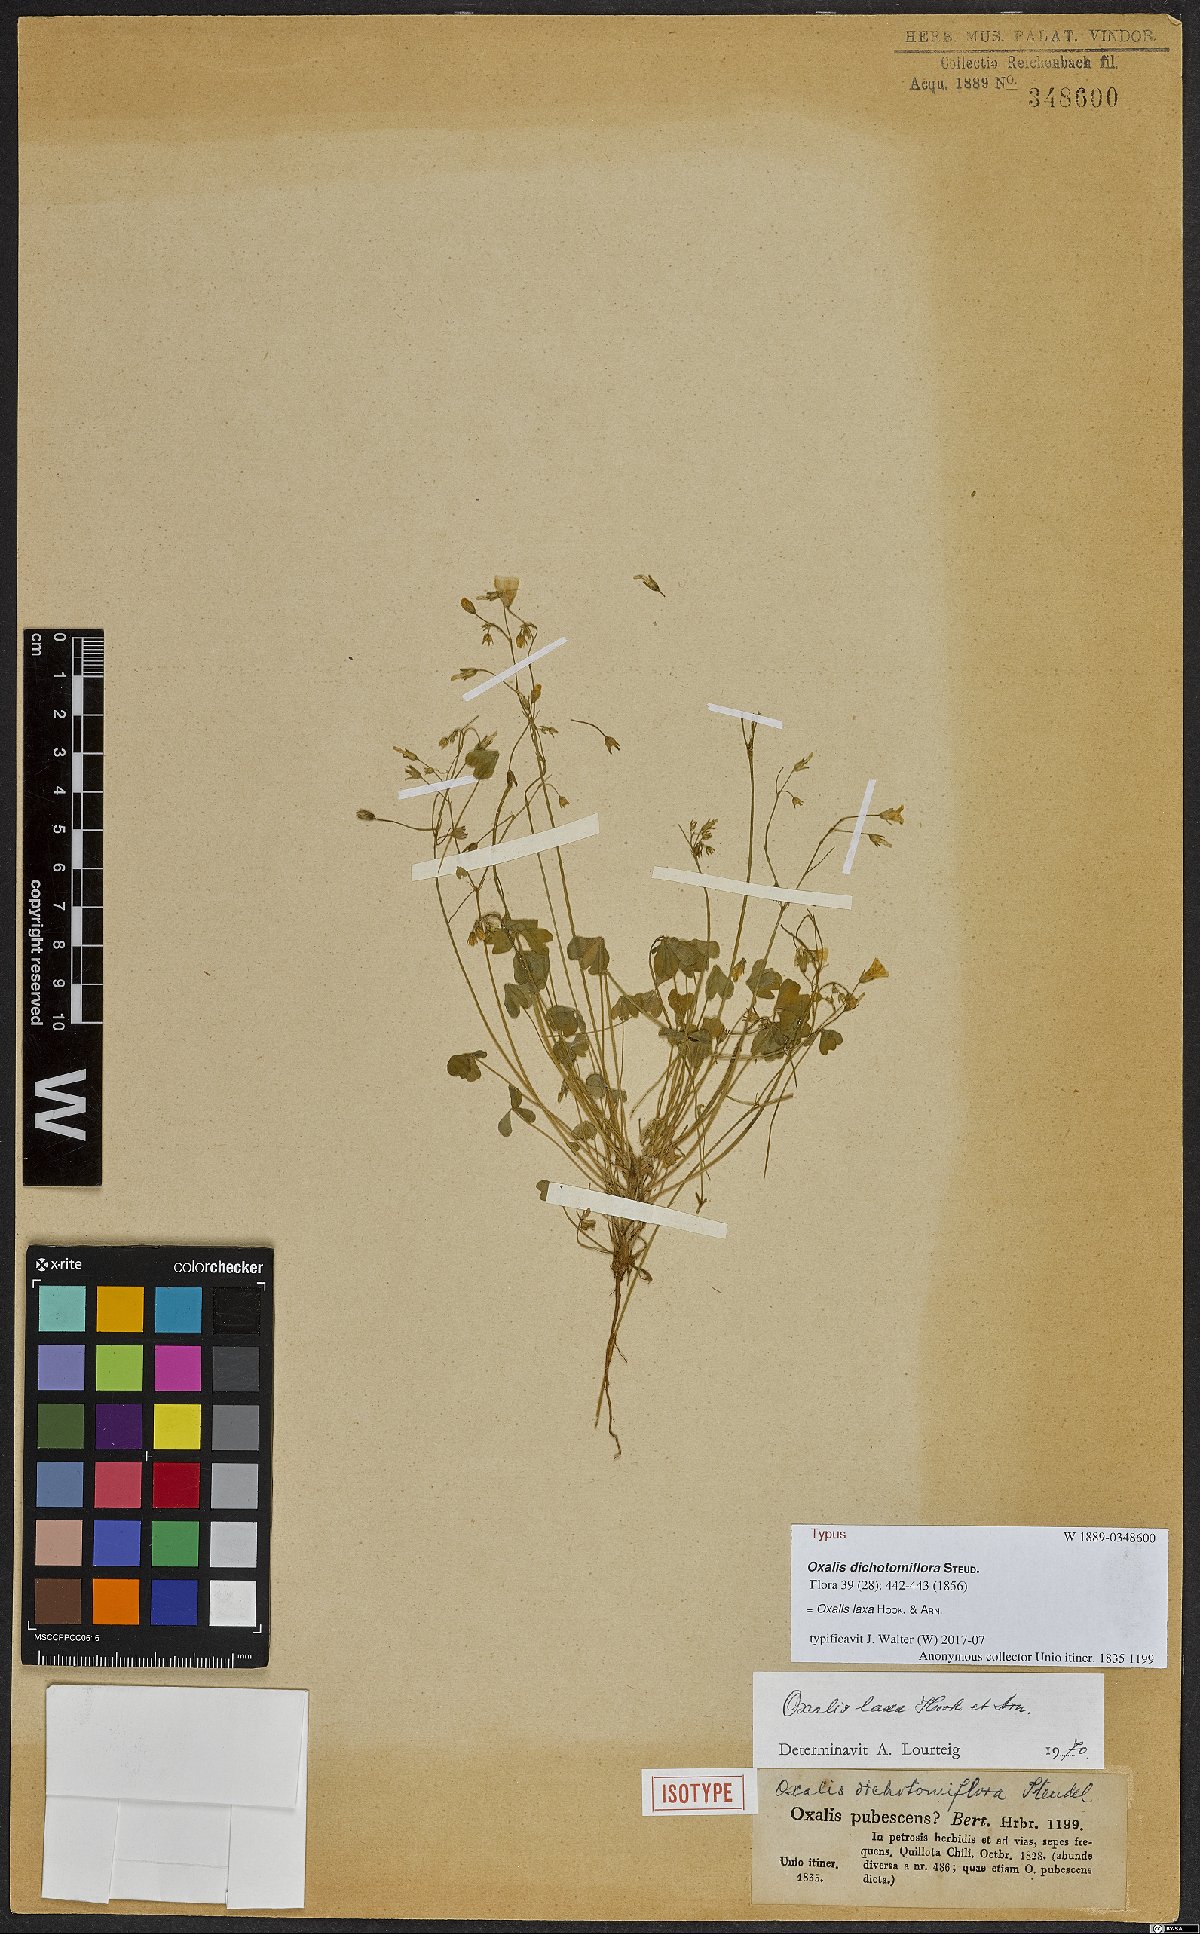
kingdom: Plantae
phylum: Tracheophyta
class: Magnoliopsida
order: Oxalidales
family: Oxalidaceae
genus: Oxalis
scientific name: Oxalis laxa
